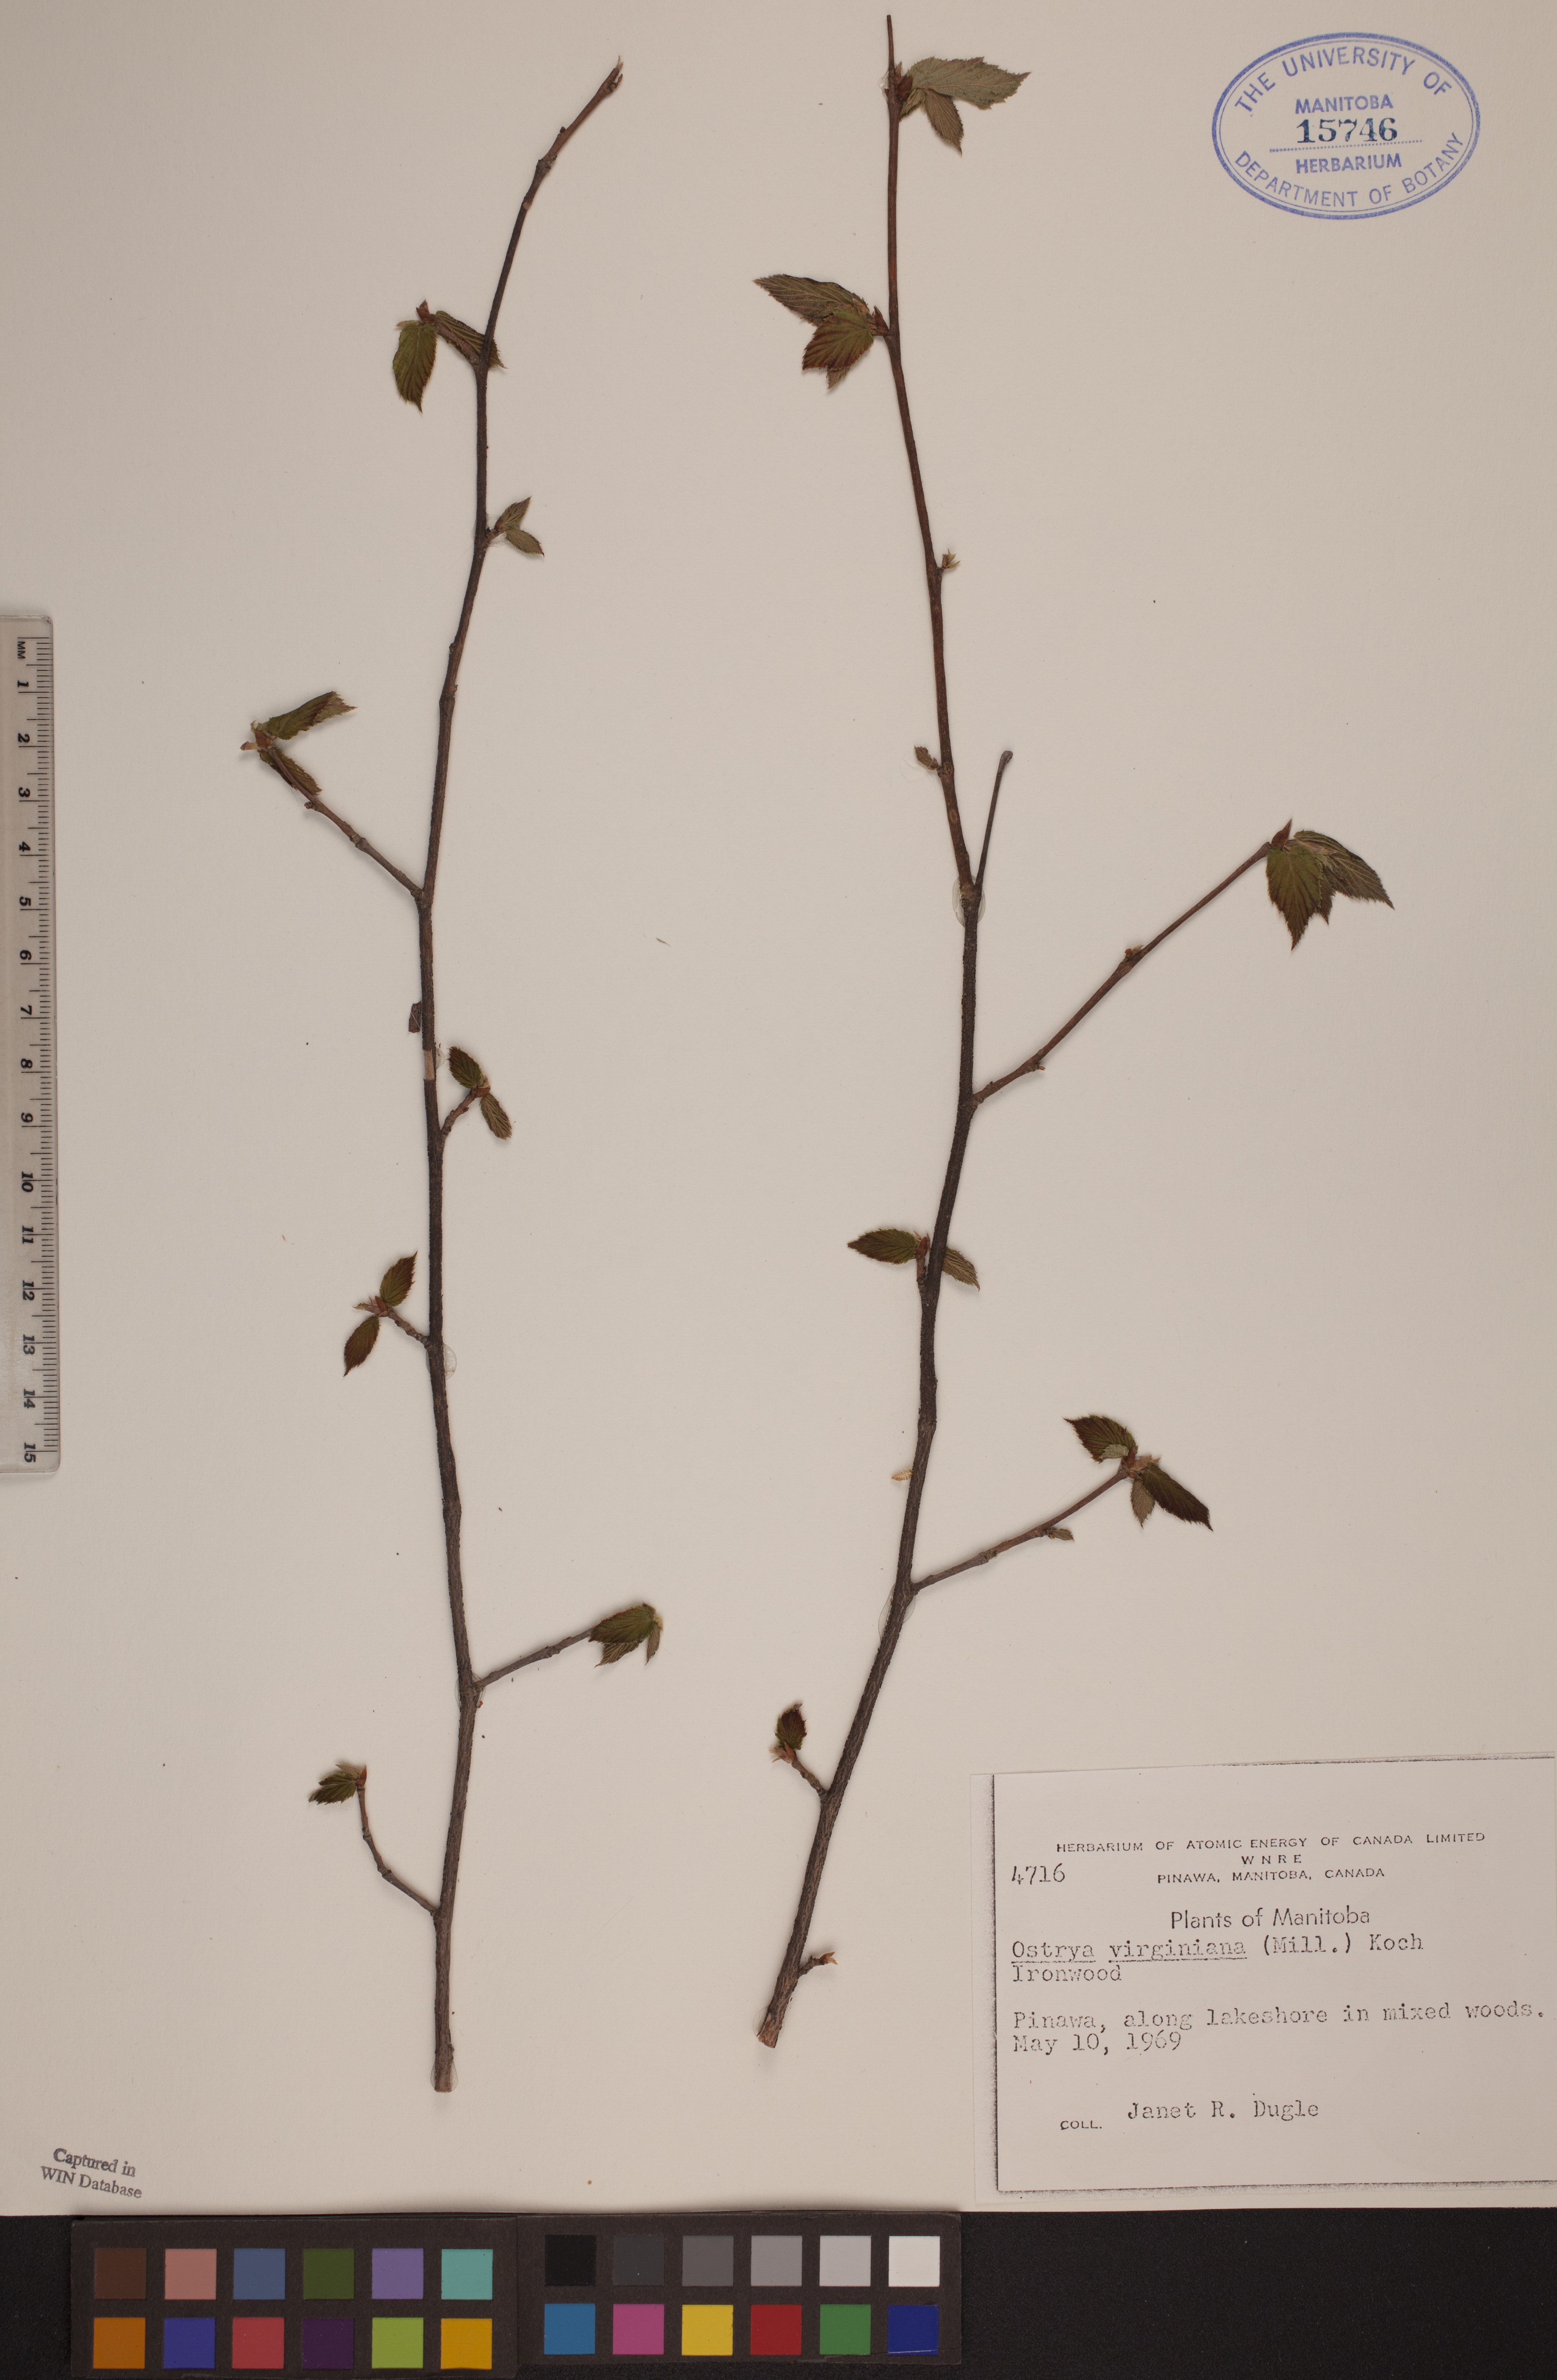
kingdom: Plantae
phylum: Tracheophyta
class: Magnoliopsida
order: Fagales
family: Betulaceae
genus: Ostrya
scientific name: Ostrya virginiana
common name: Ironwood
